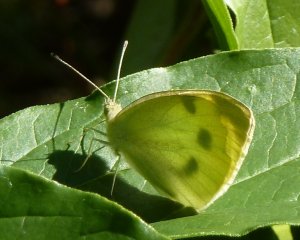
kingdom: Animalia
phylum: Arthropoda
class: Insecta
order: Lepidoptera
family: Pieridae
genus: Pieris
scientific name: Pieris rapae
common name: Cabbage White
